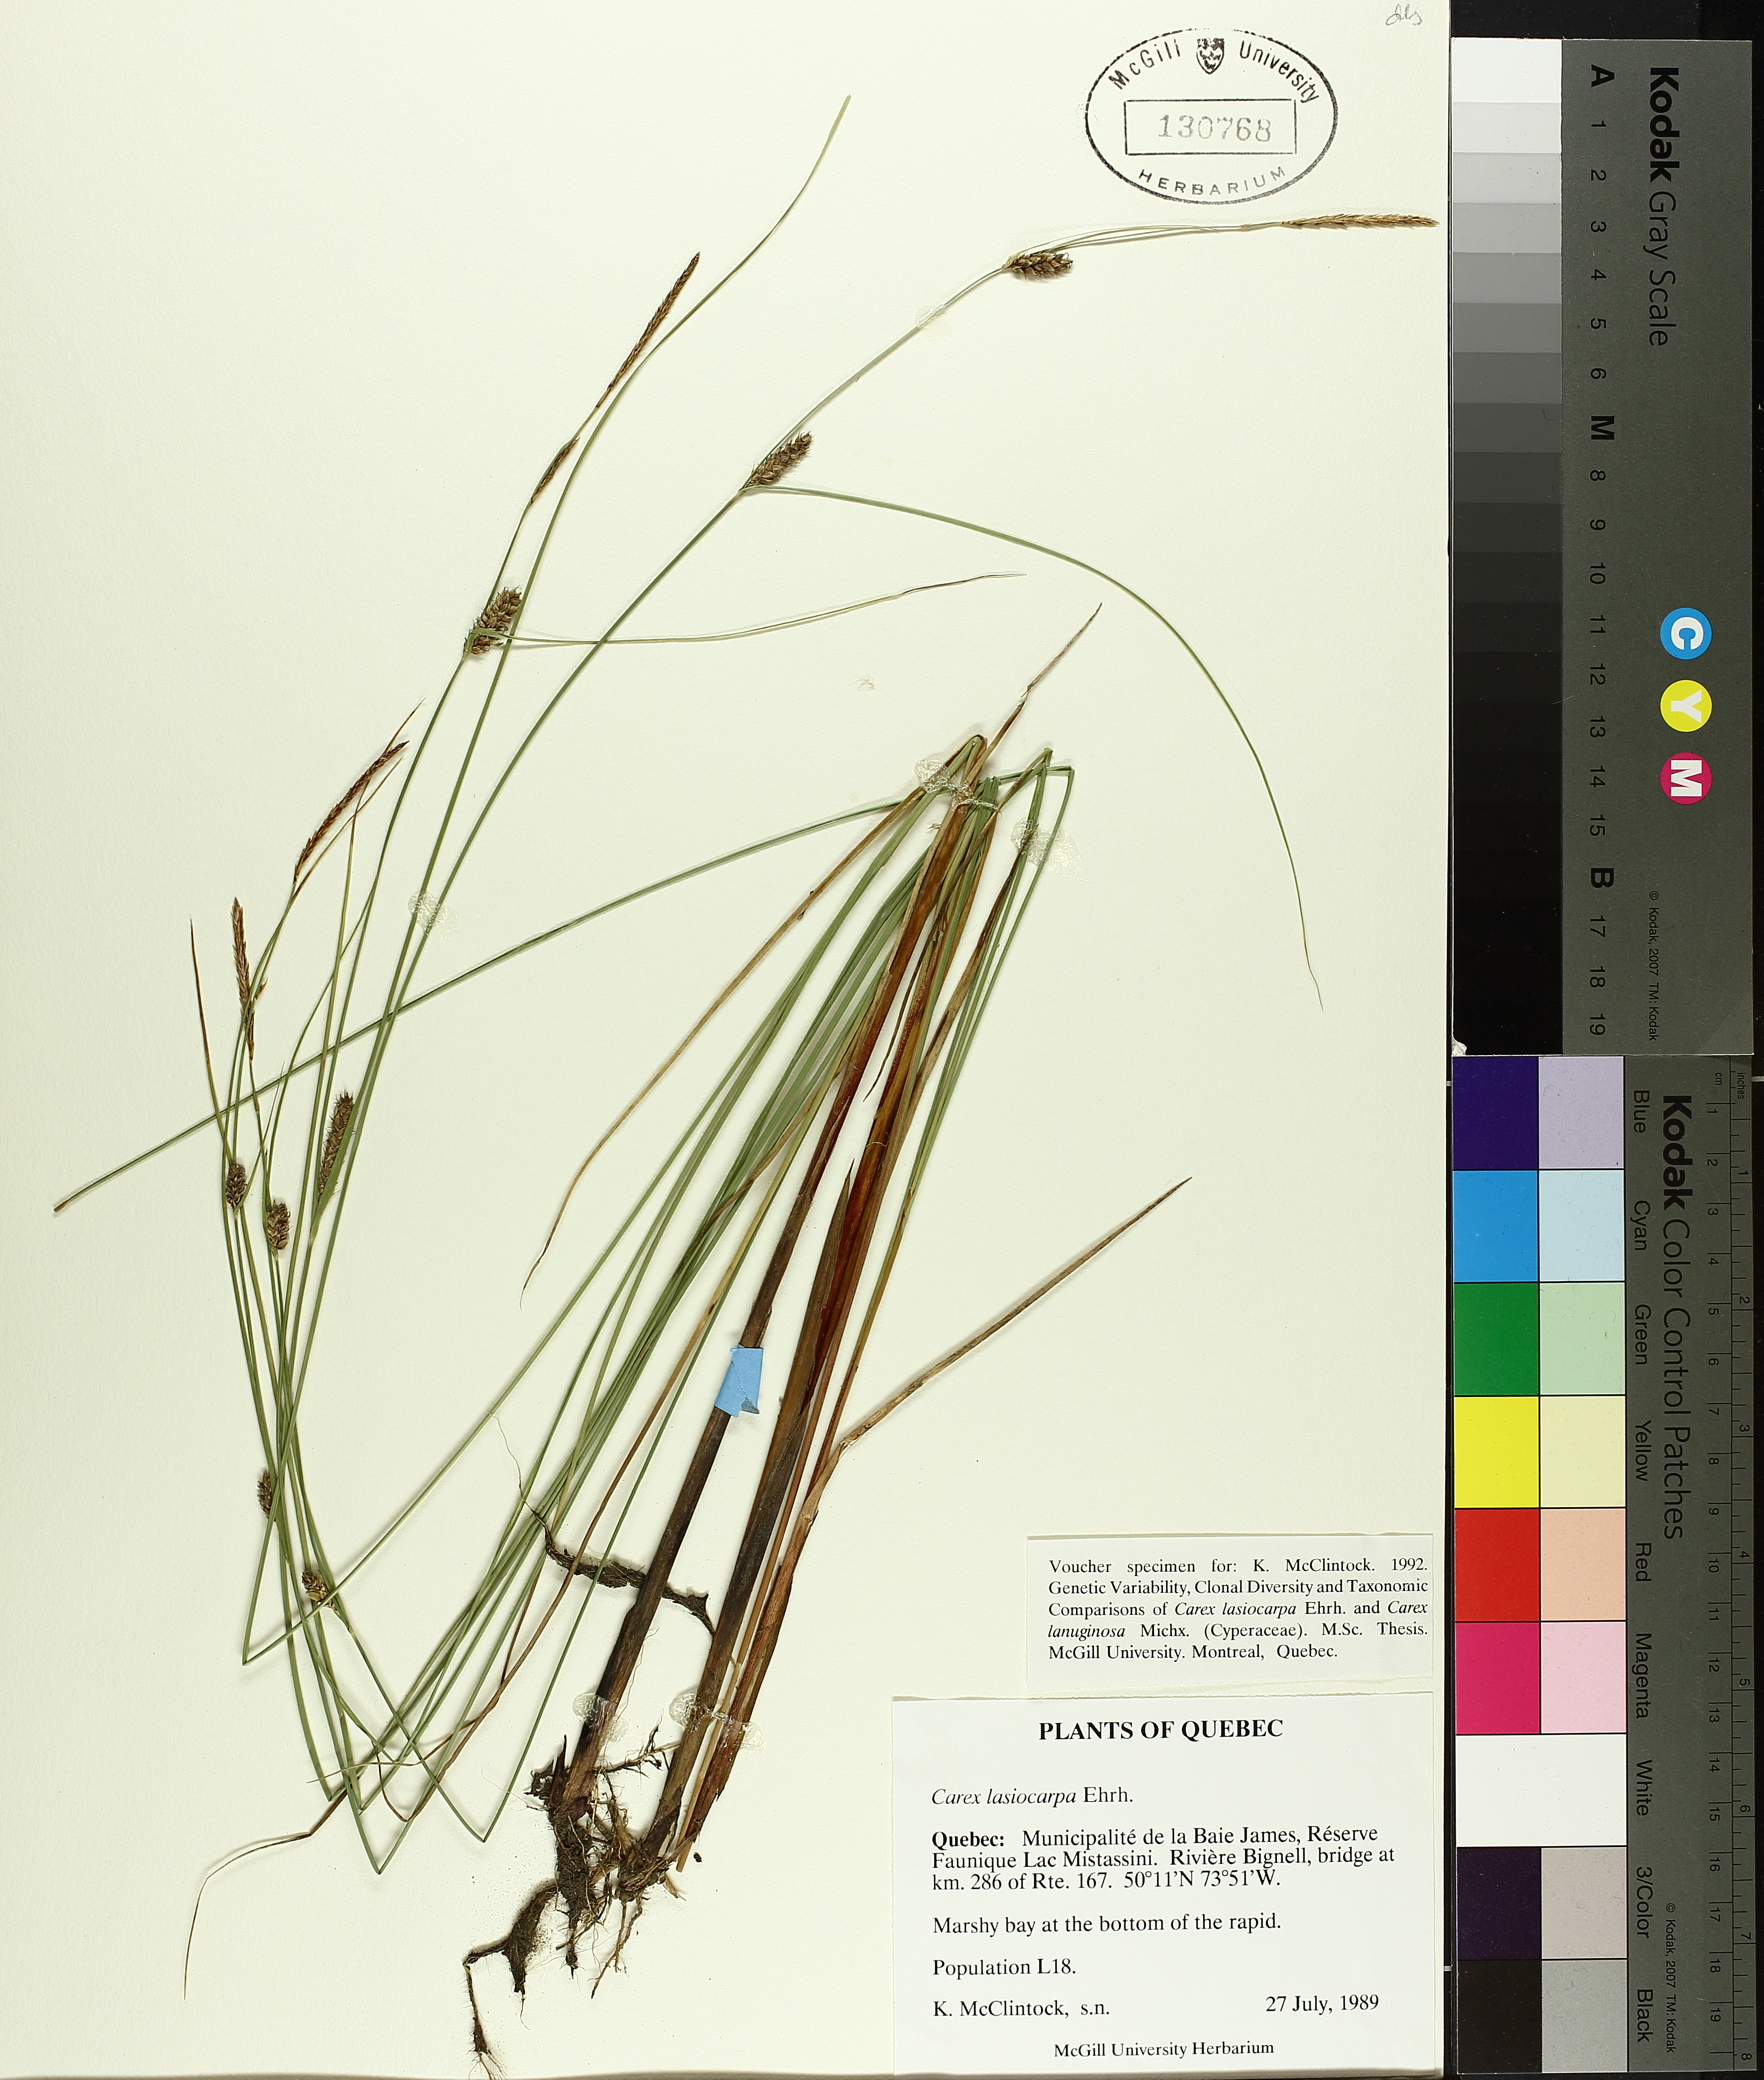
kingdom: Plantae
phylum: Tracheophyta
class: Liliopsida
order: Poales
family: Cyperaceae
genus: Carex
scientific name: Carex lasiocarpa
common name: Slender sedge
